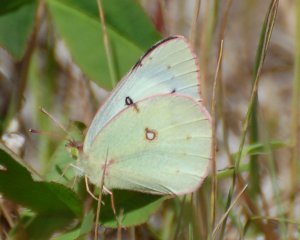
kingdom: Animalia
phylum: Arthropoda
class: Insecta
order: Lepidoptera
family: Pieridae
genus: Colias
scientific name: Colias philodice
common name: Clouded Sulphur
